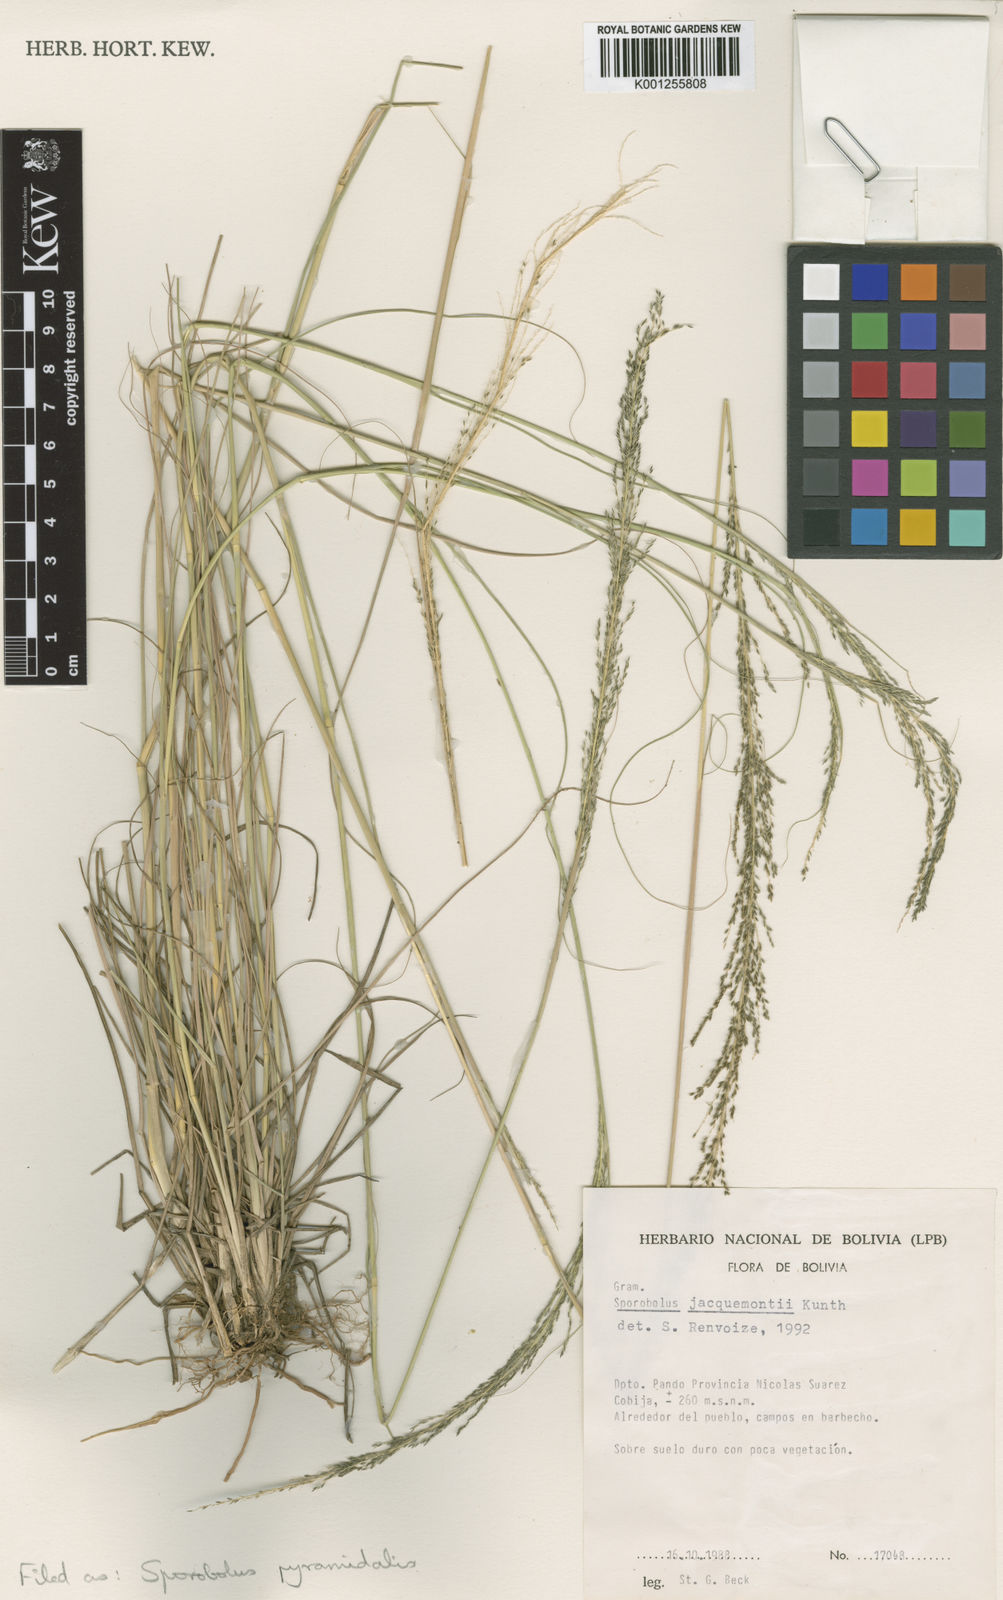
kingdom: Plantae
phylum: Tracheophyta
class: Liliopsida
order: Poales
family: Poaceae
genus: Sporobolus
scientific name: Sporobolus pyramidalis
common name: West indian dropseed
